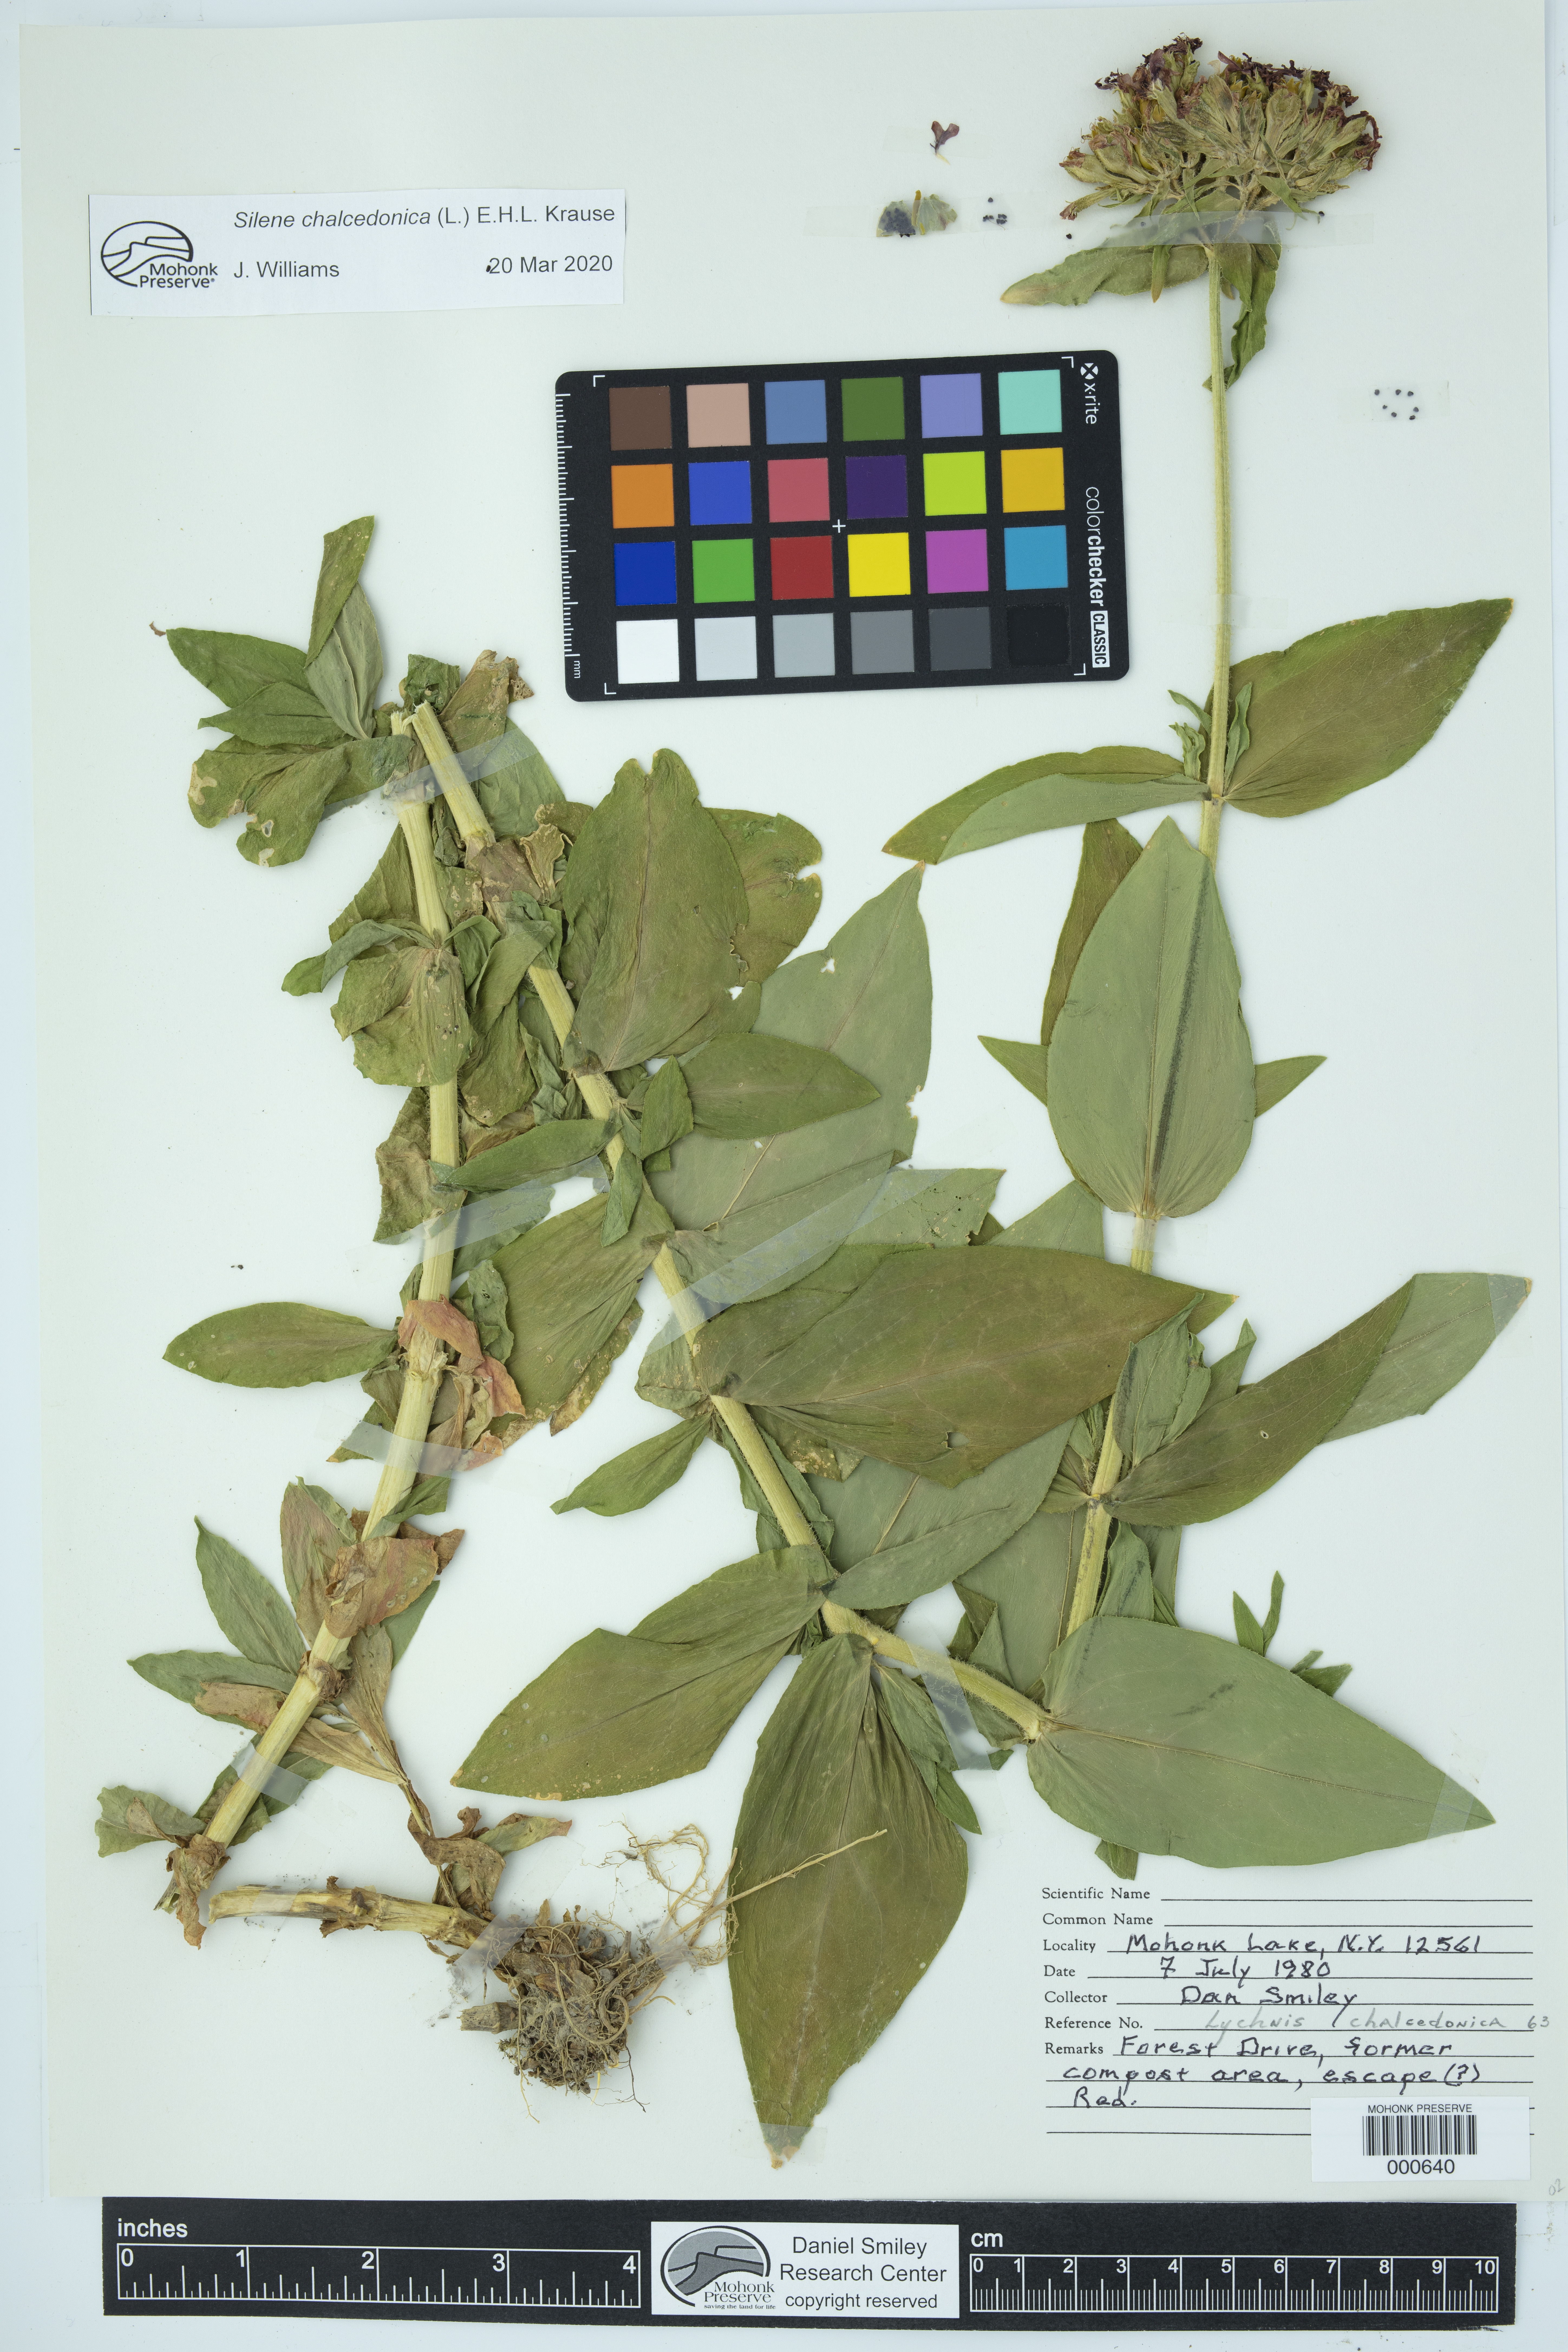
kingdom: Plantae
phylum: Tracheophyta
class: Magnoliopsida
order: Caryophyllales
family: Caryophyllaceae
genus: Silene
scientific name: Silene chalcedonica
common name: Maltese-cross
